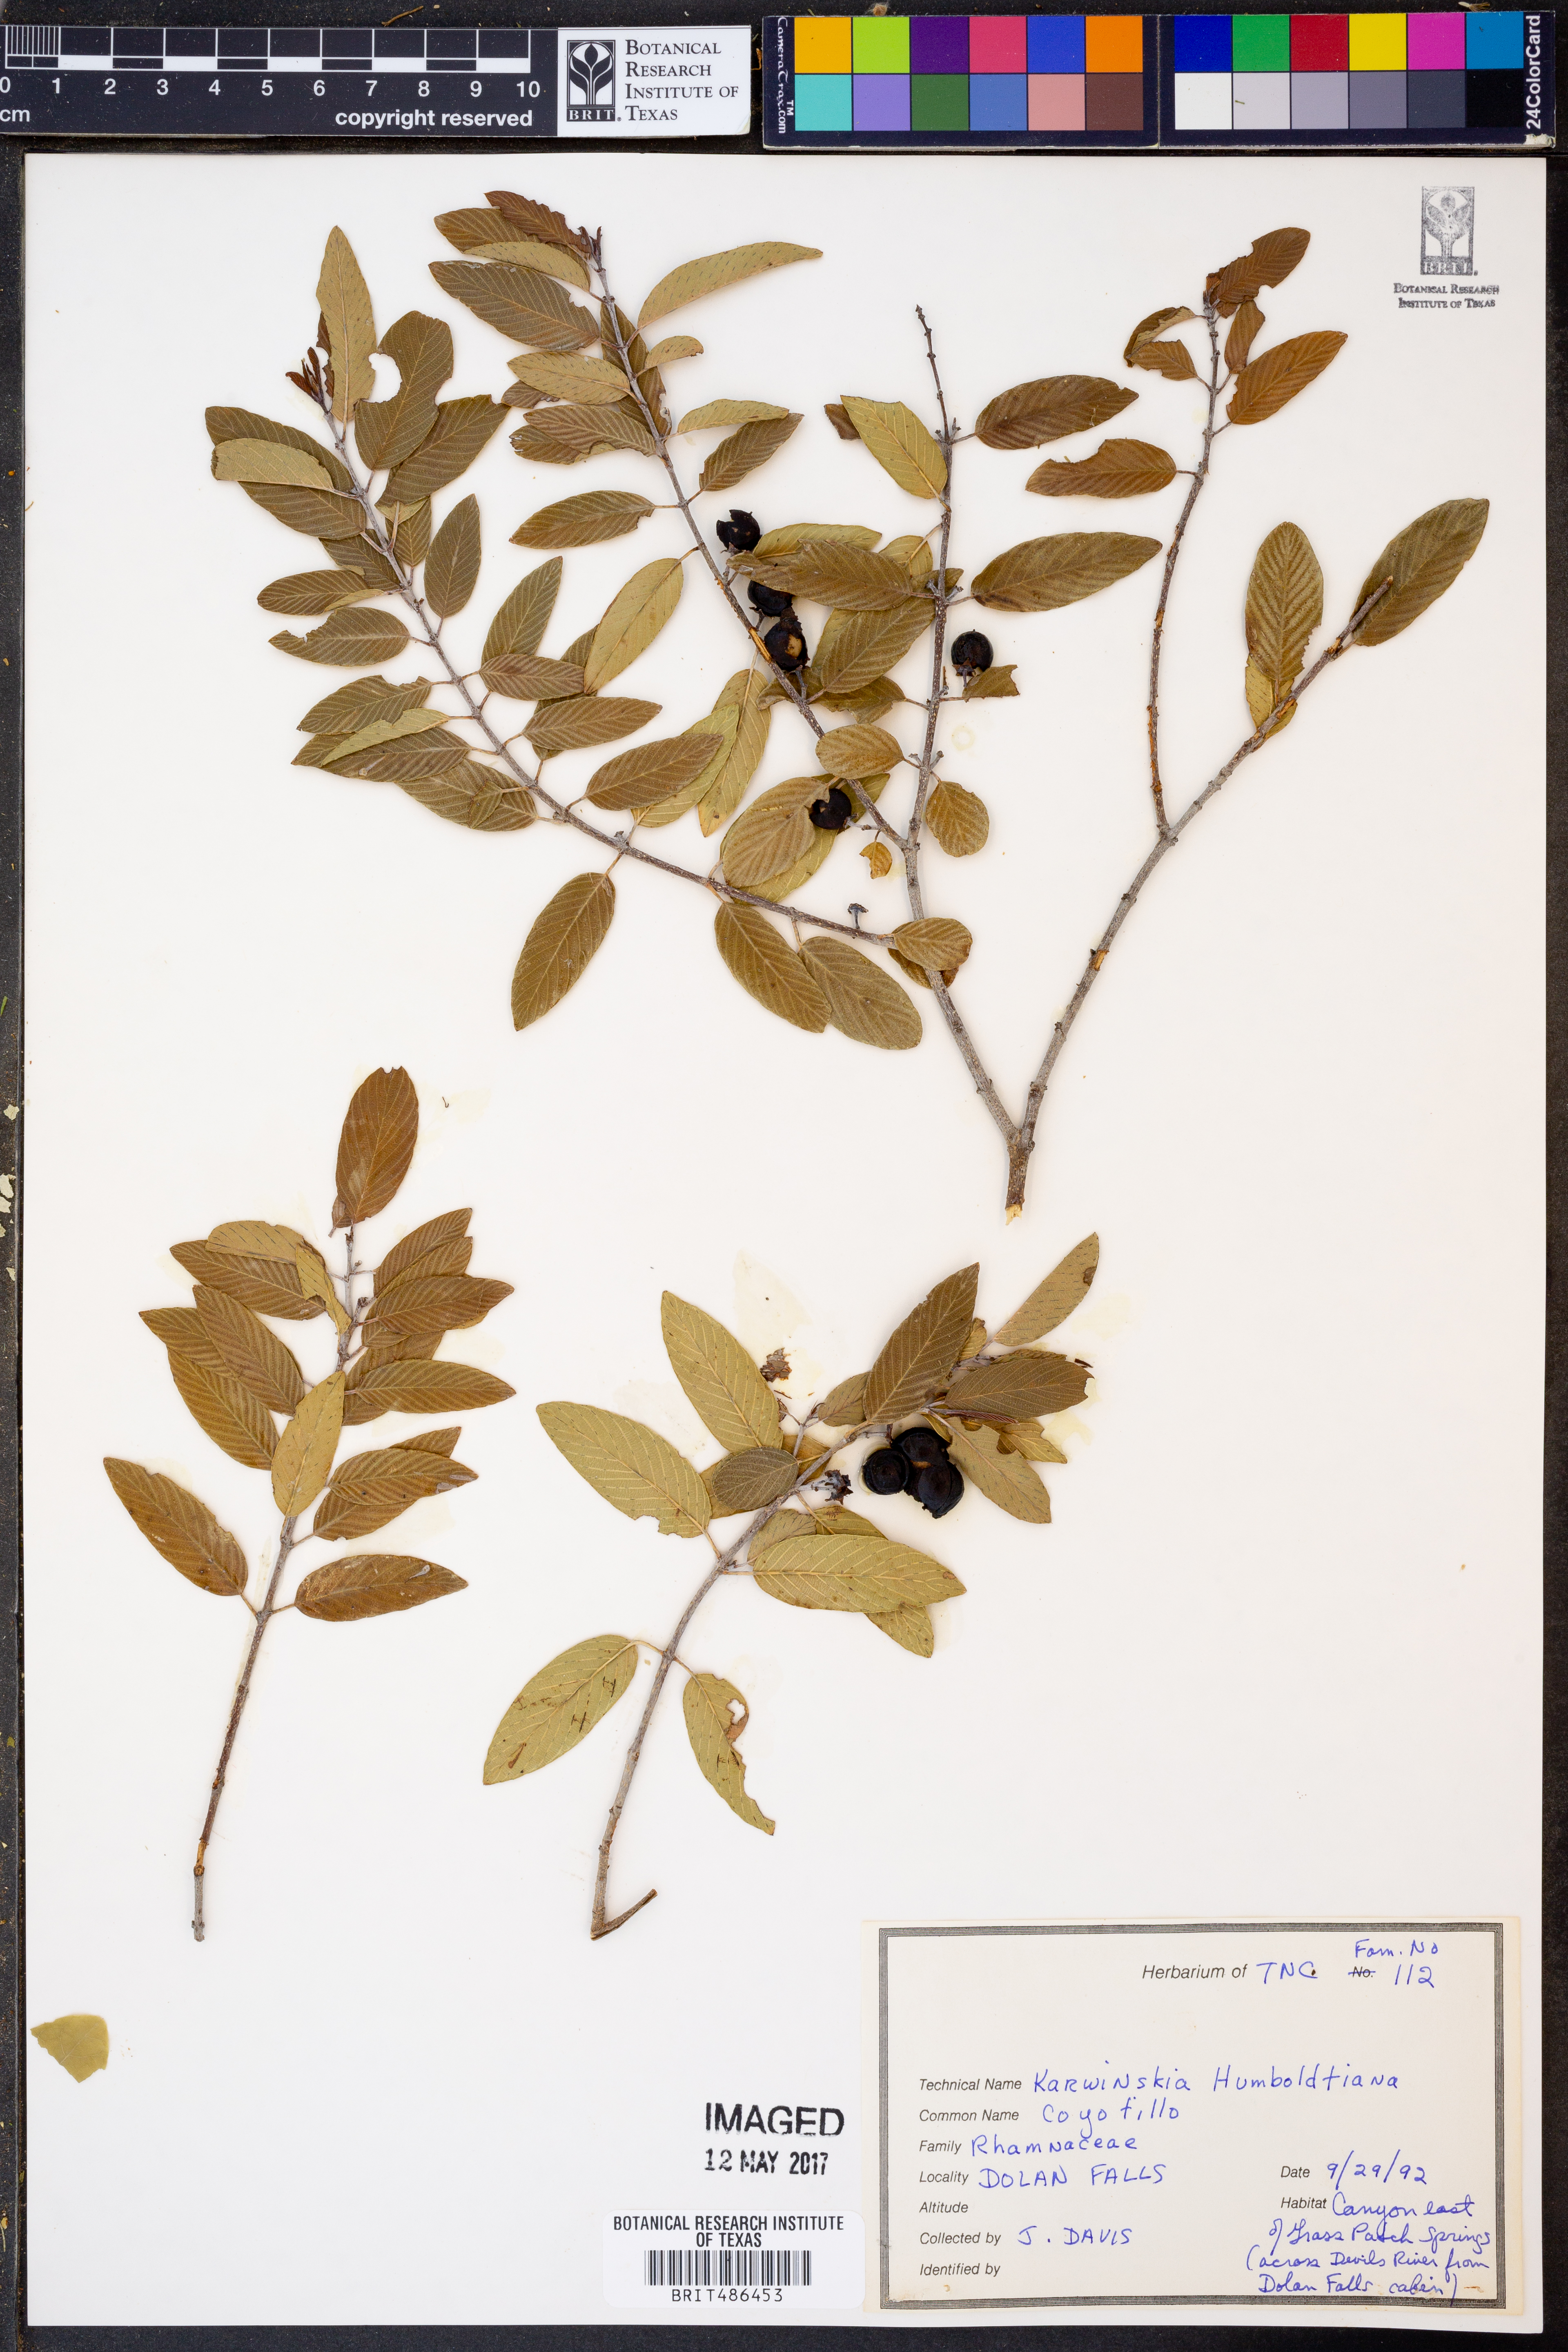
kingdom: Plantae
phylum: Tracheophyta
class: Magnoliopsida
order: Rosales
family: Rhamnaceae
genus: Karwinskia
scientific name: Karwinskia humboldtiana
